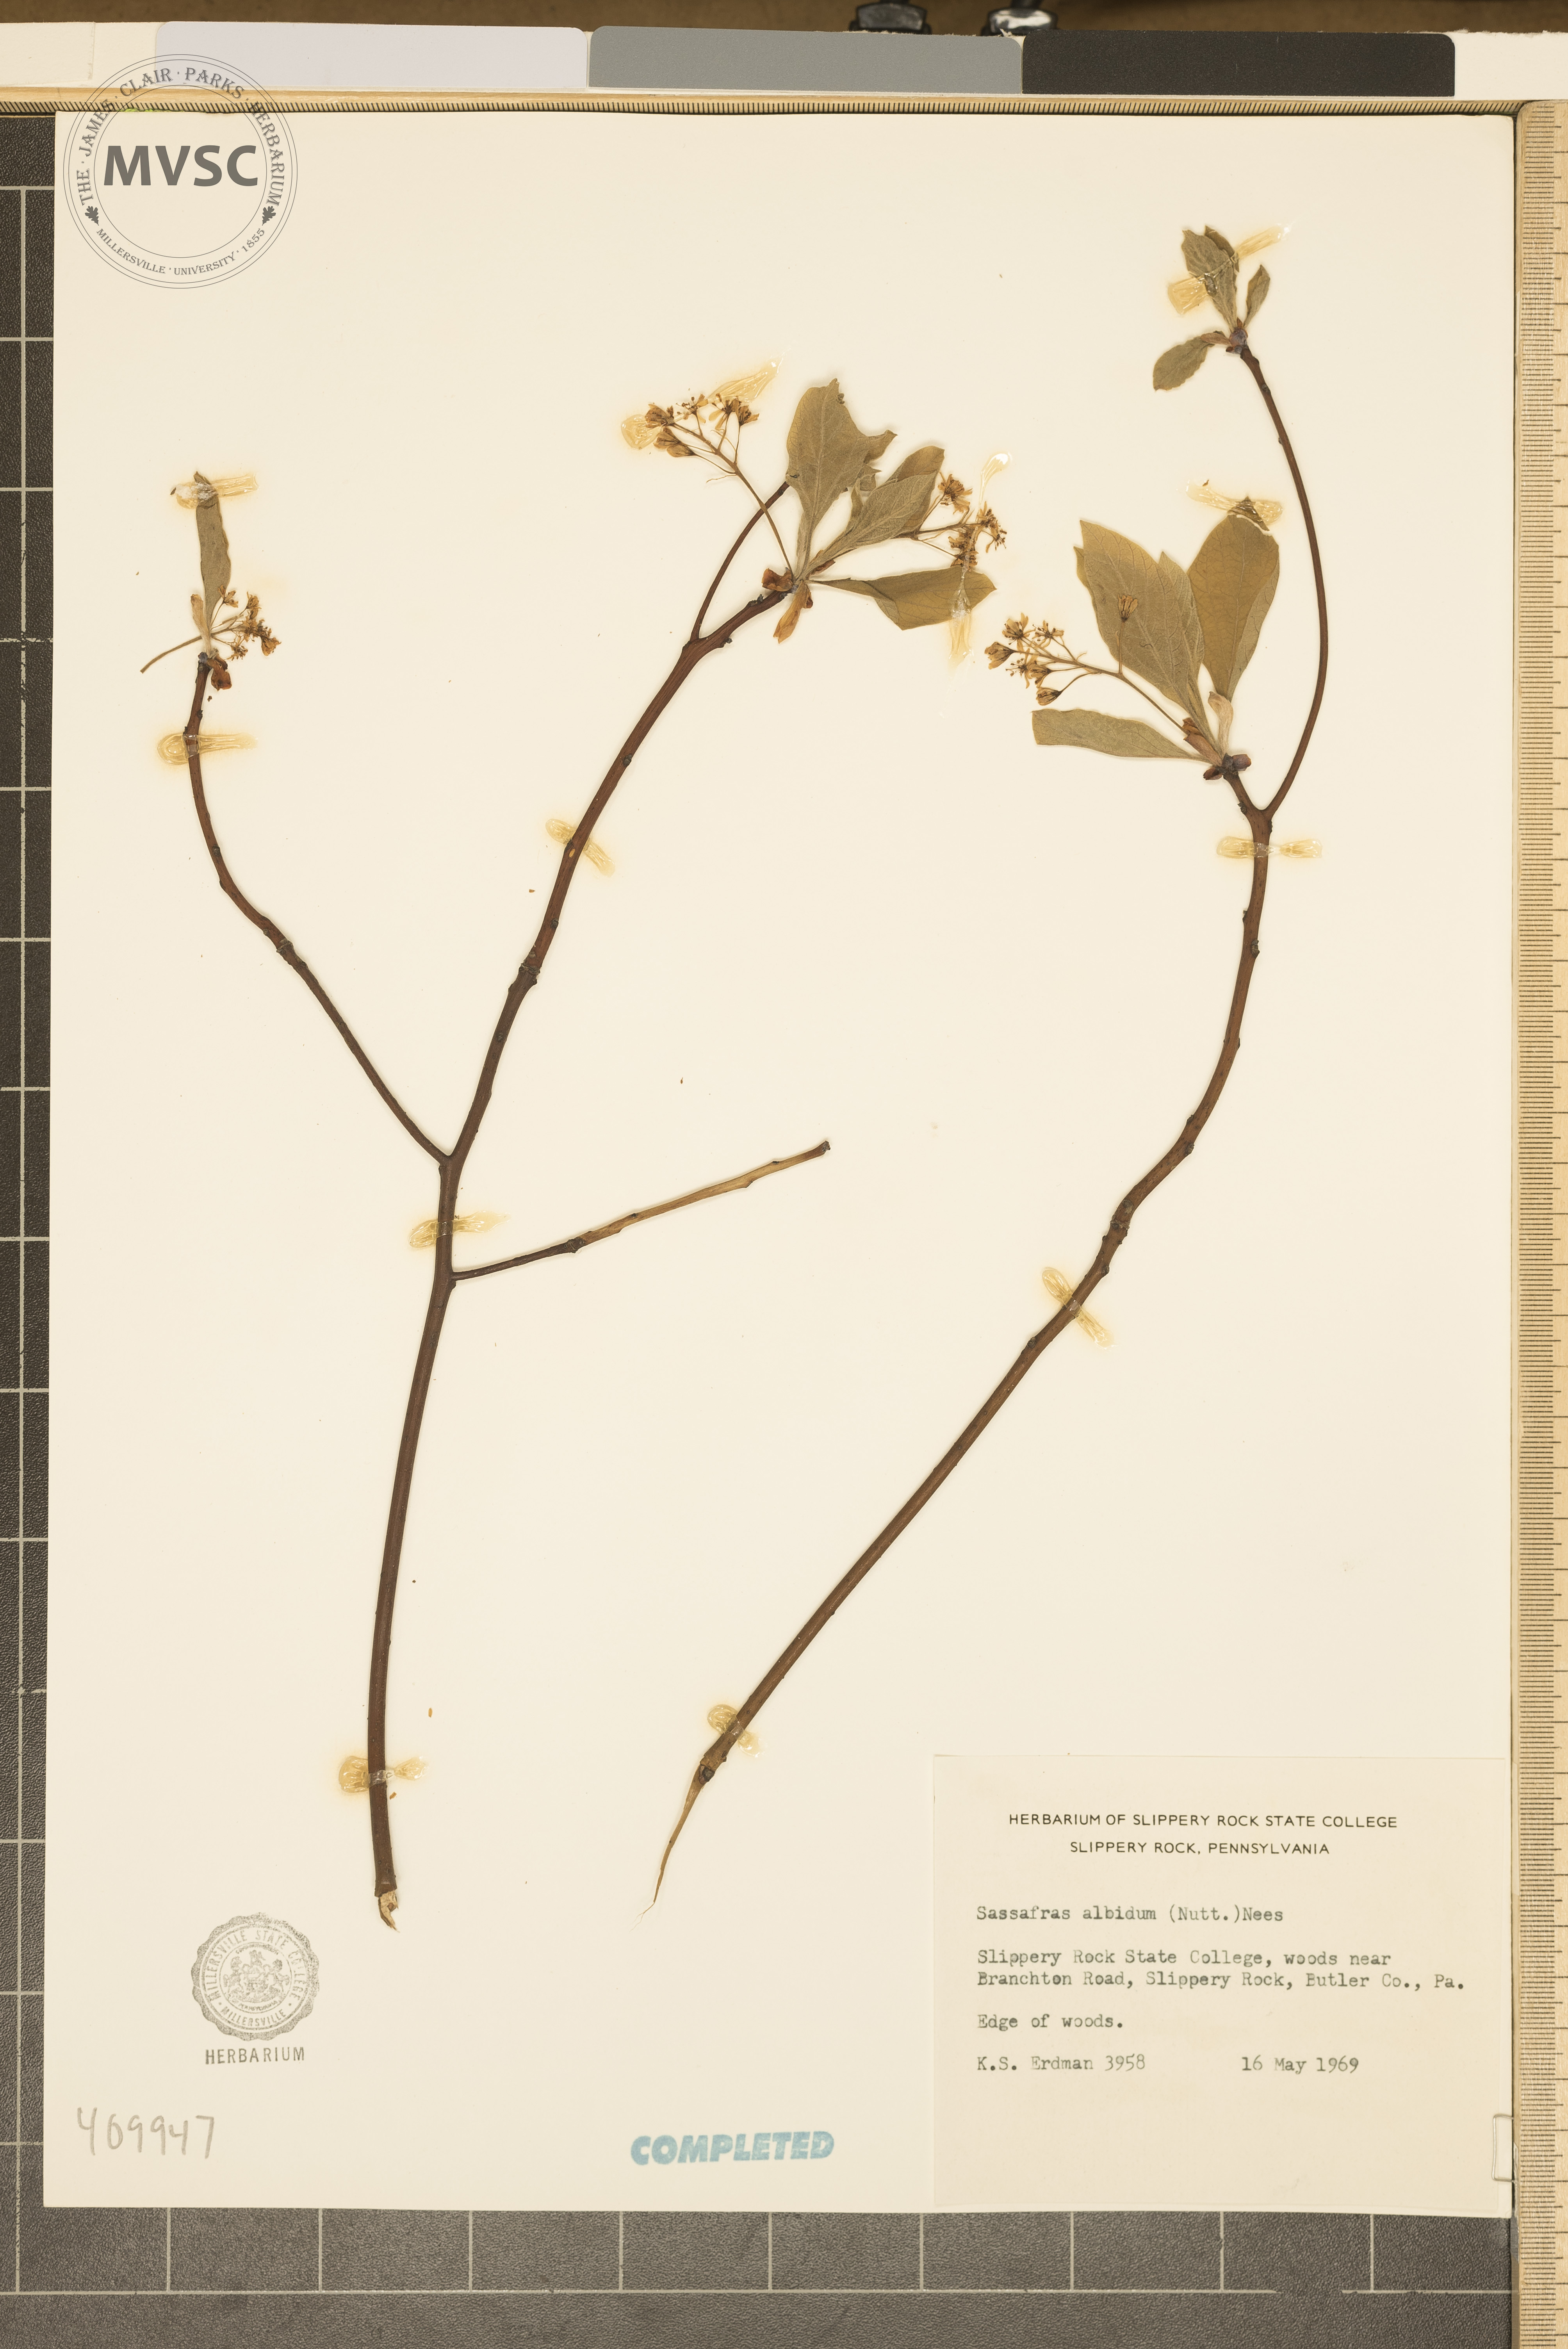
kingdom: Plantae
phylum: Tracheophyta
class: Magnoliopsida
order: Laurales
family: Lauraceae
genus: Sassafras
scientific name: Sassafras albidum
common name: Sassafras
